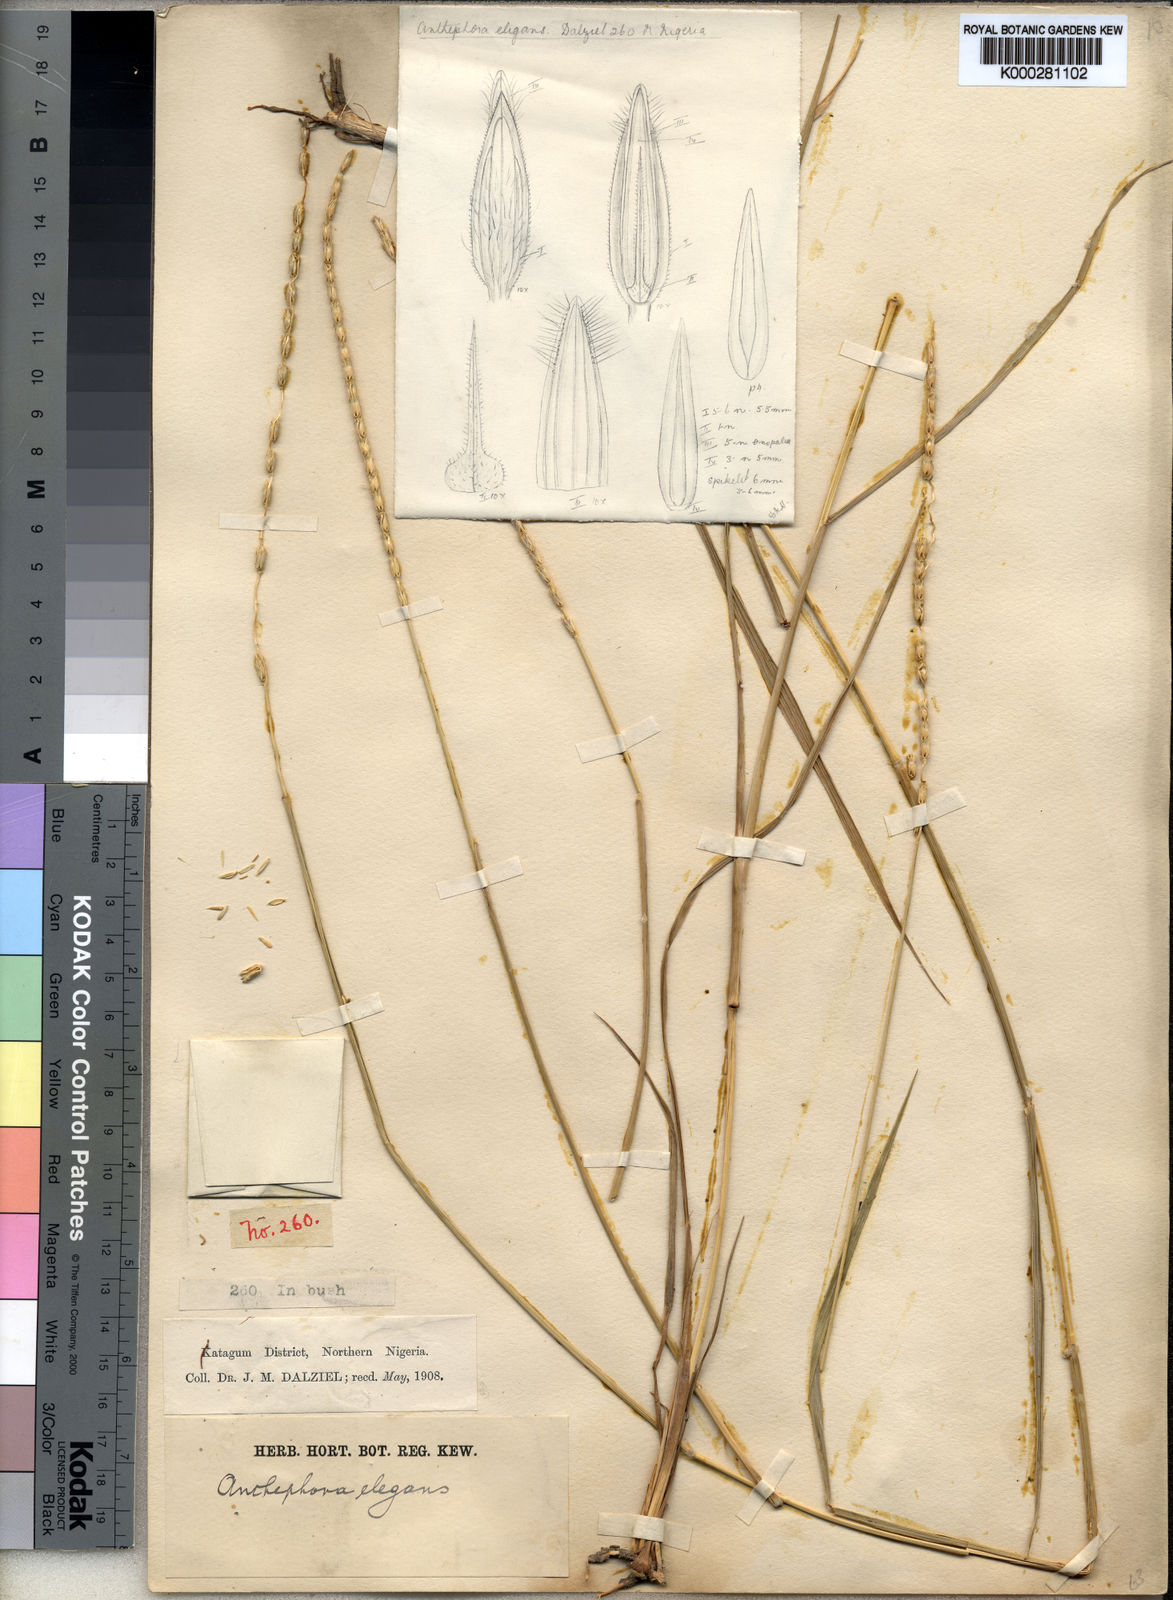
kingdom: Plantae
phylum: Tracheophyta
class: Liliopsida
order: Poales
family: Poaceae
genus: Anthephora
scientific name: Anthephora nigritana
